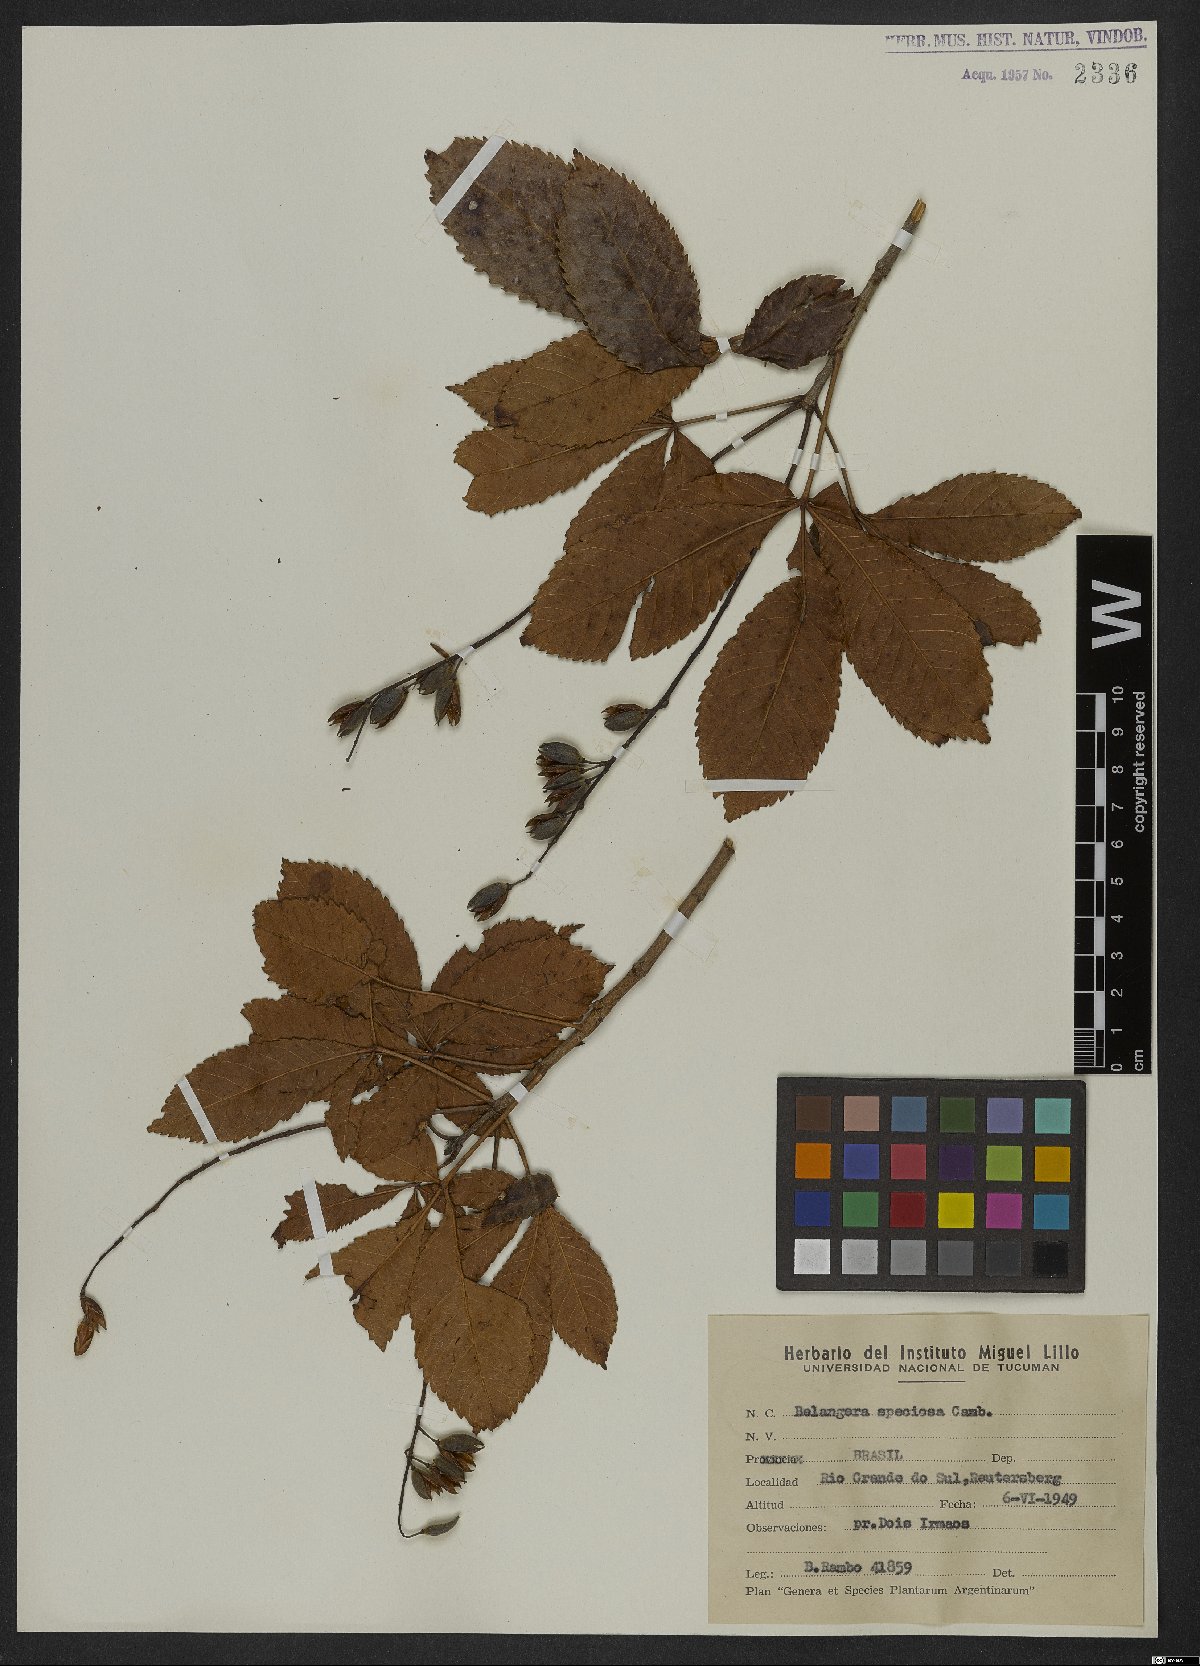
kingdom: Plantae
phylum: Tracheophyta
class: Magnoliopsida
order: Oxalidales
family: Cunoniaceae
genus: Lamanonia
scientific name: Lamanonia speciosa
